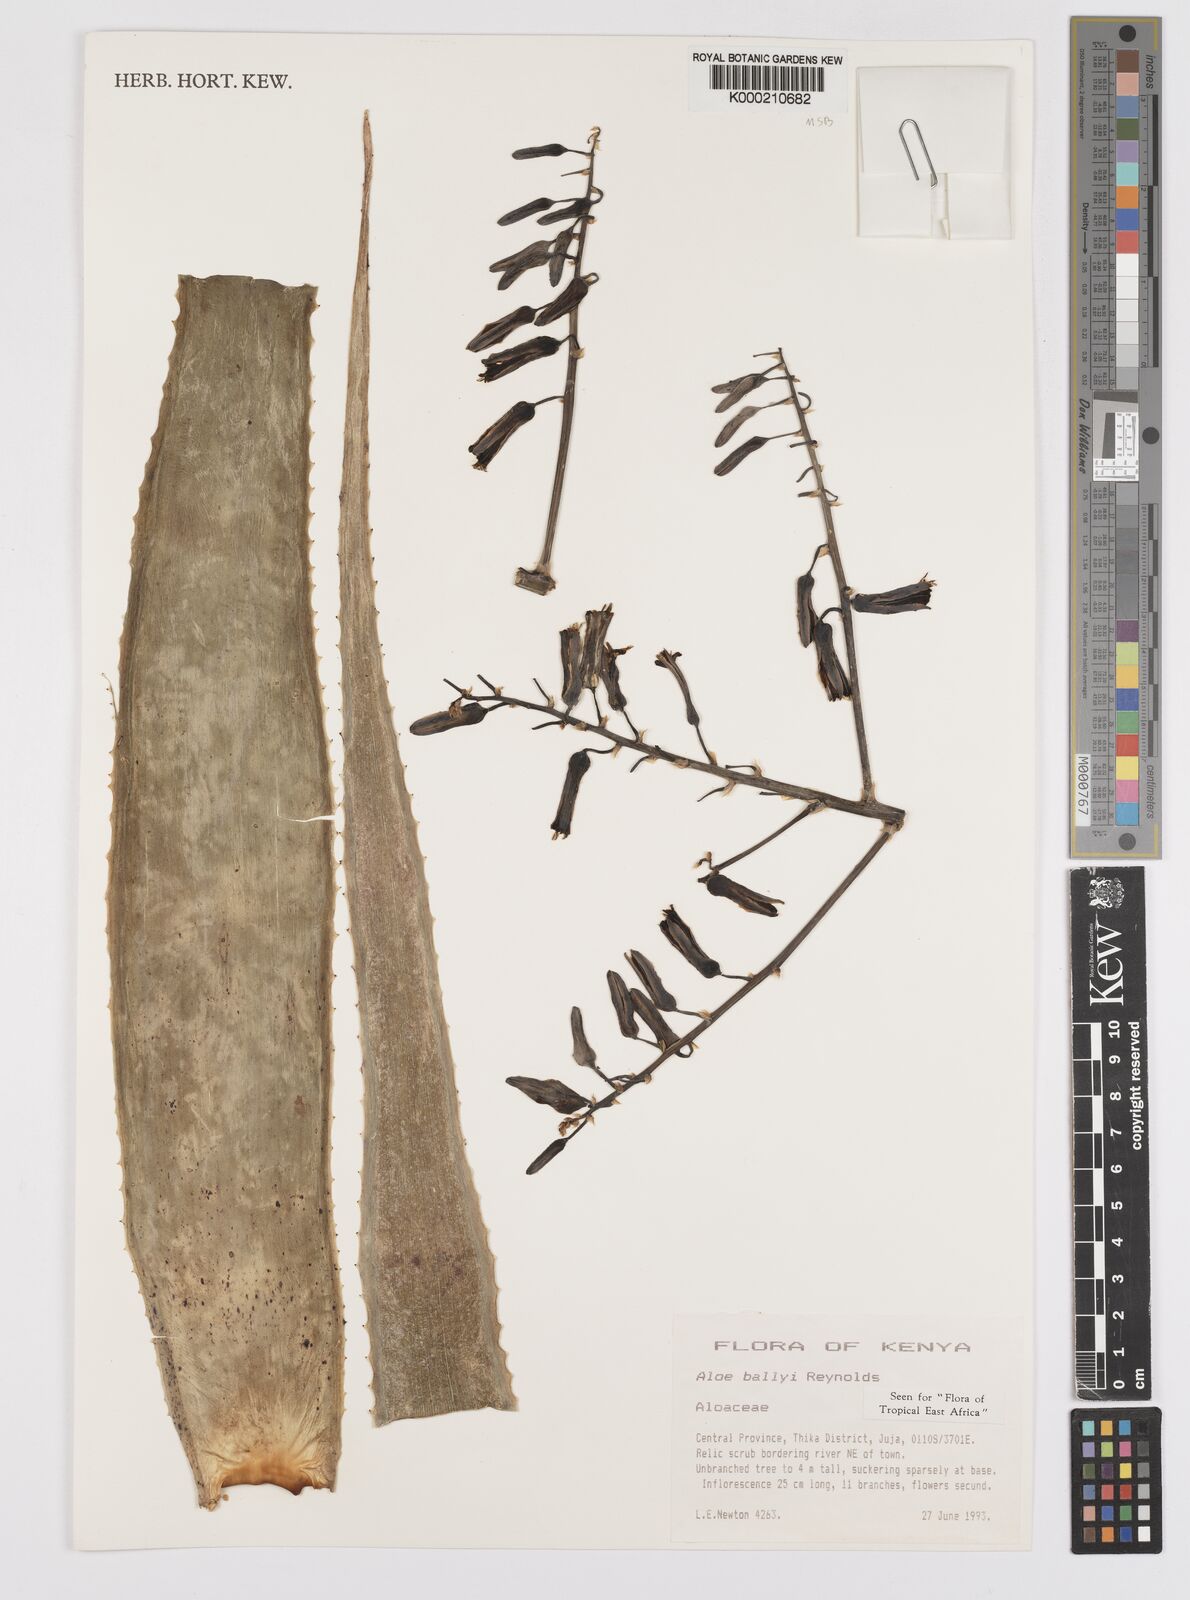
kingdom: Plantae
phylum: Tracheophyta
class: Liliopsida
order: Asparagales
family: Asphodelaceae
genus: Aloe
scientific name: Aloe ballyi
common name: Rat aloe
